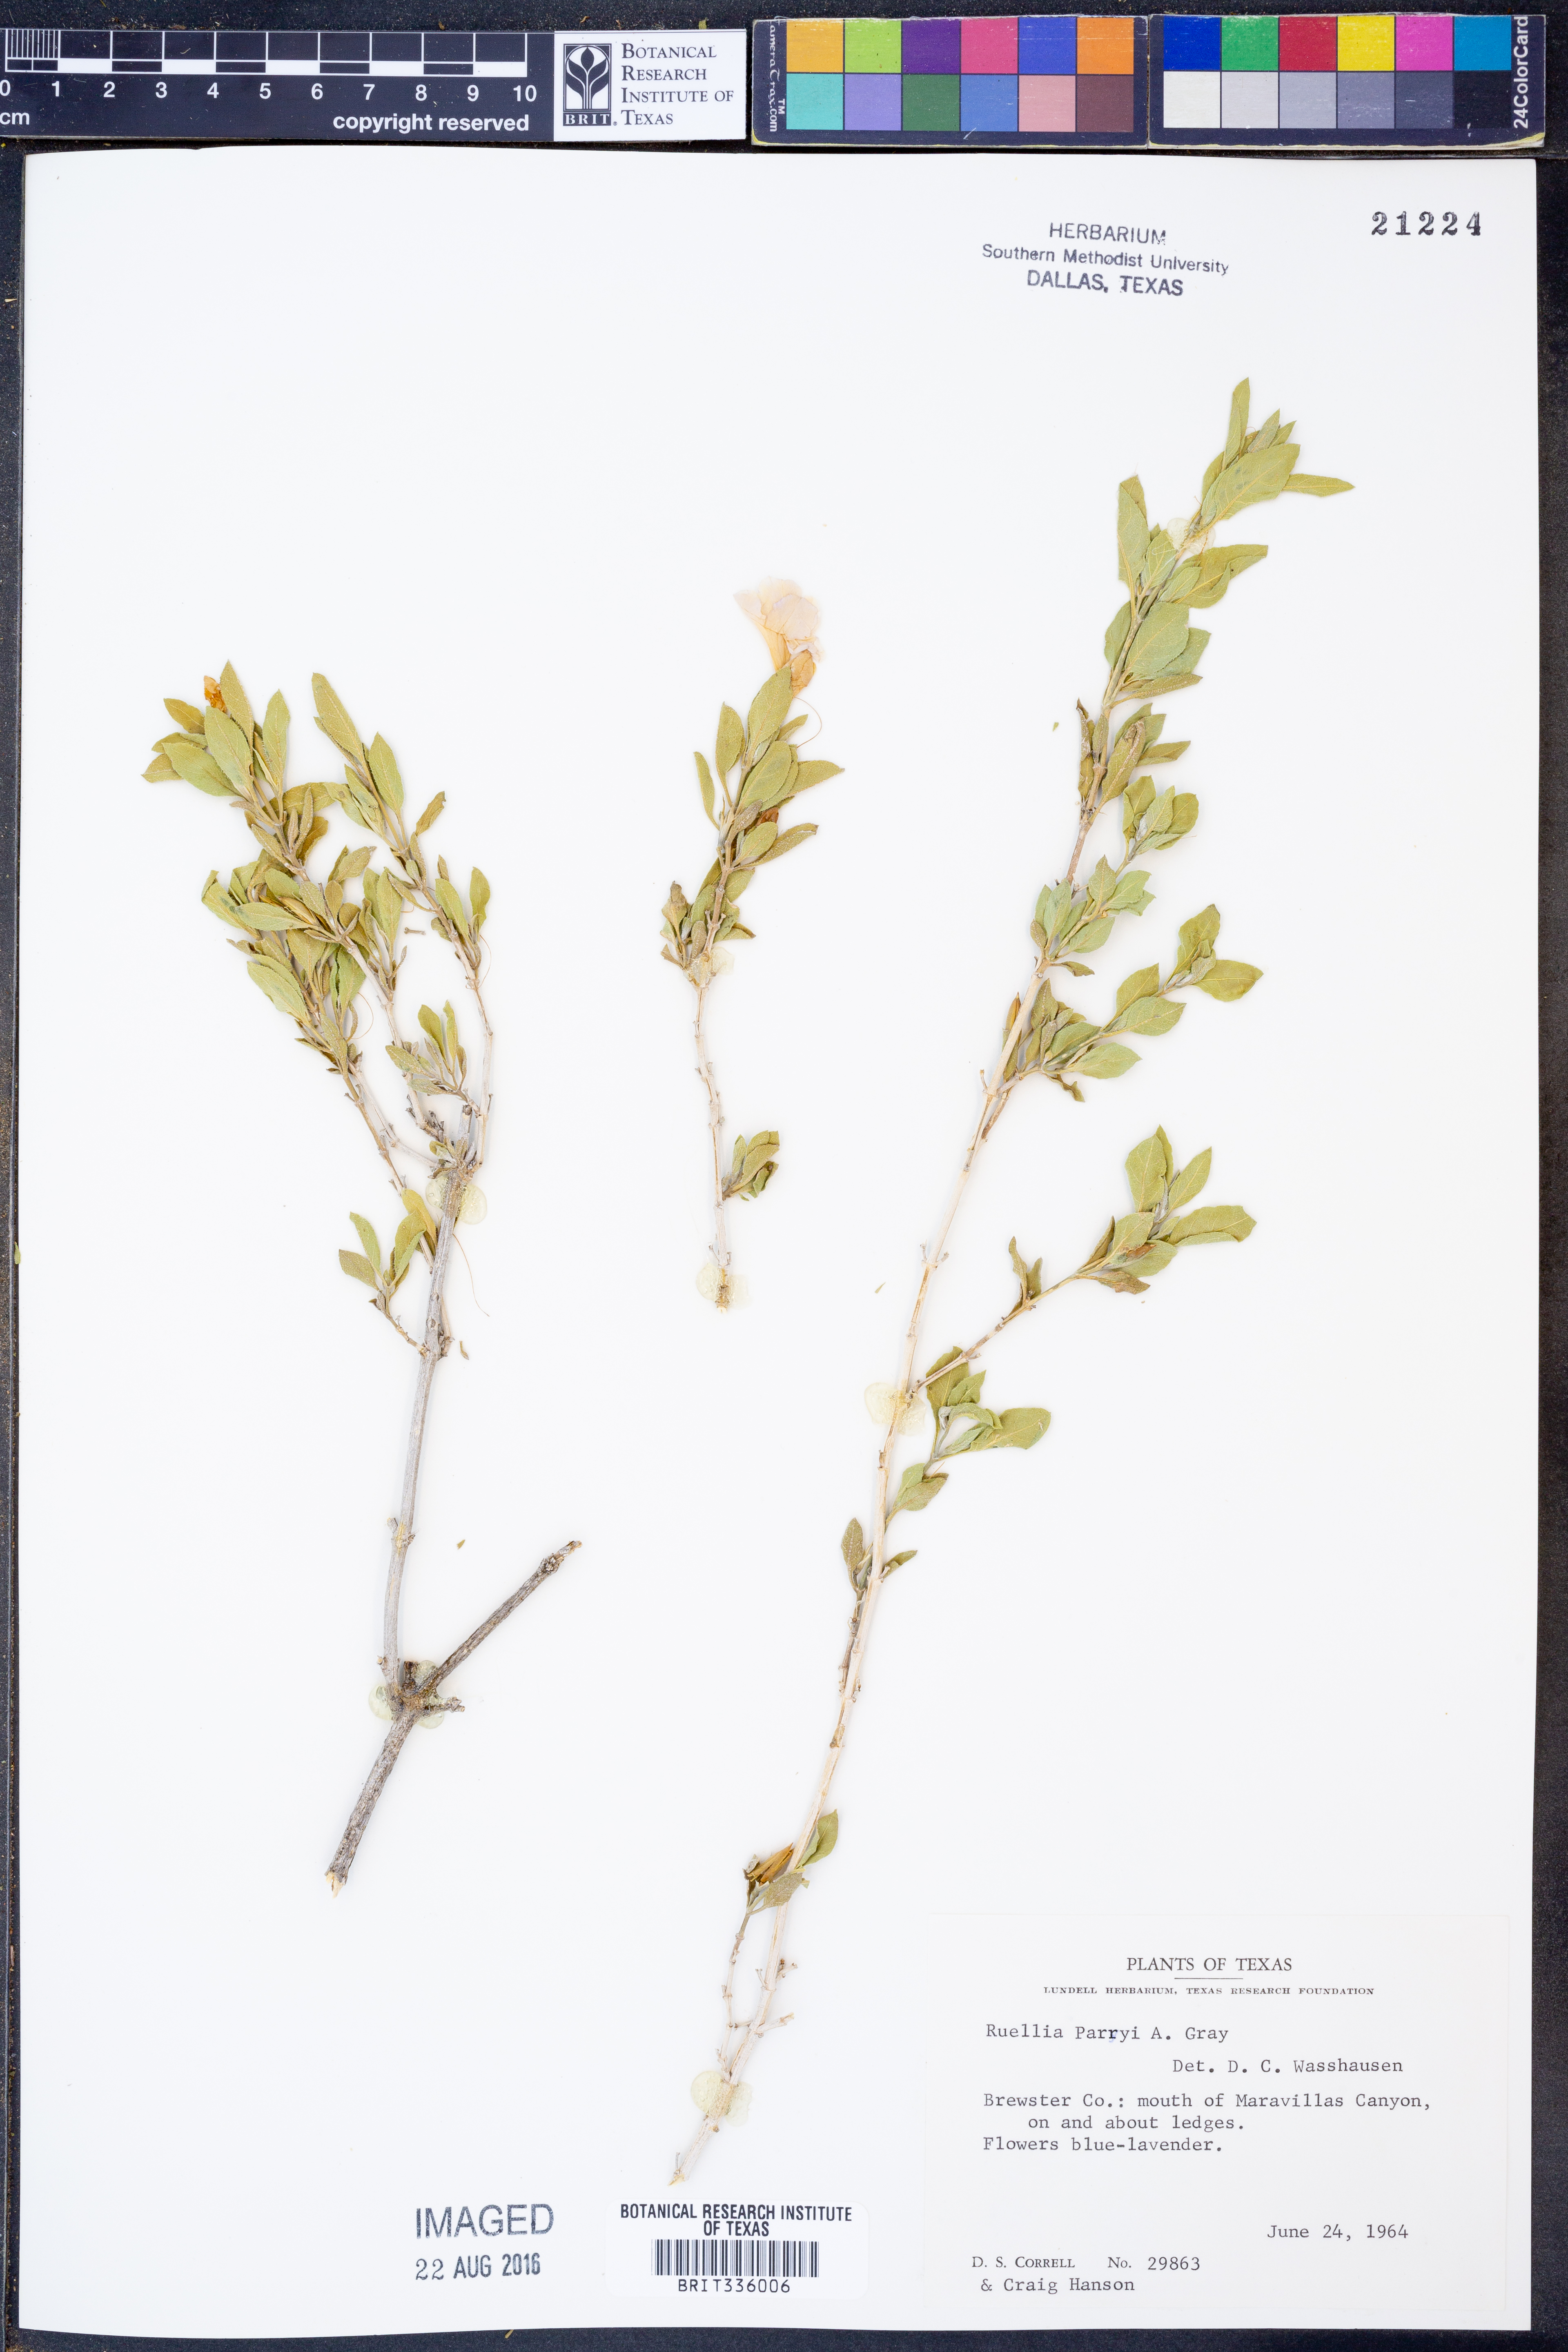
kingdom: Plantae
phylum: Tracheophyta
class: Magnoliopsida
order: Lamiales
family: Acanthaceae
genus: Ruellia
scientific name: Ruellia parryi
